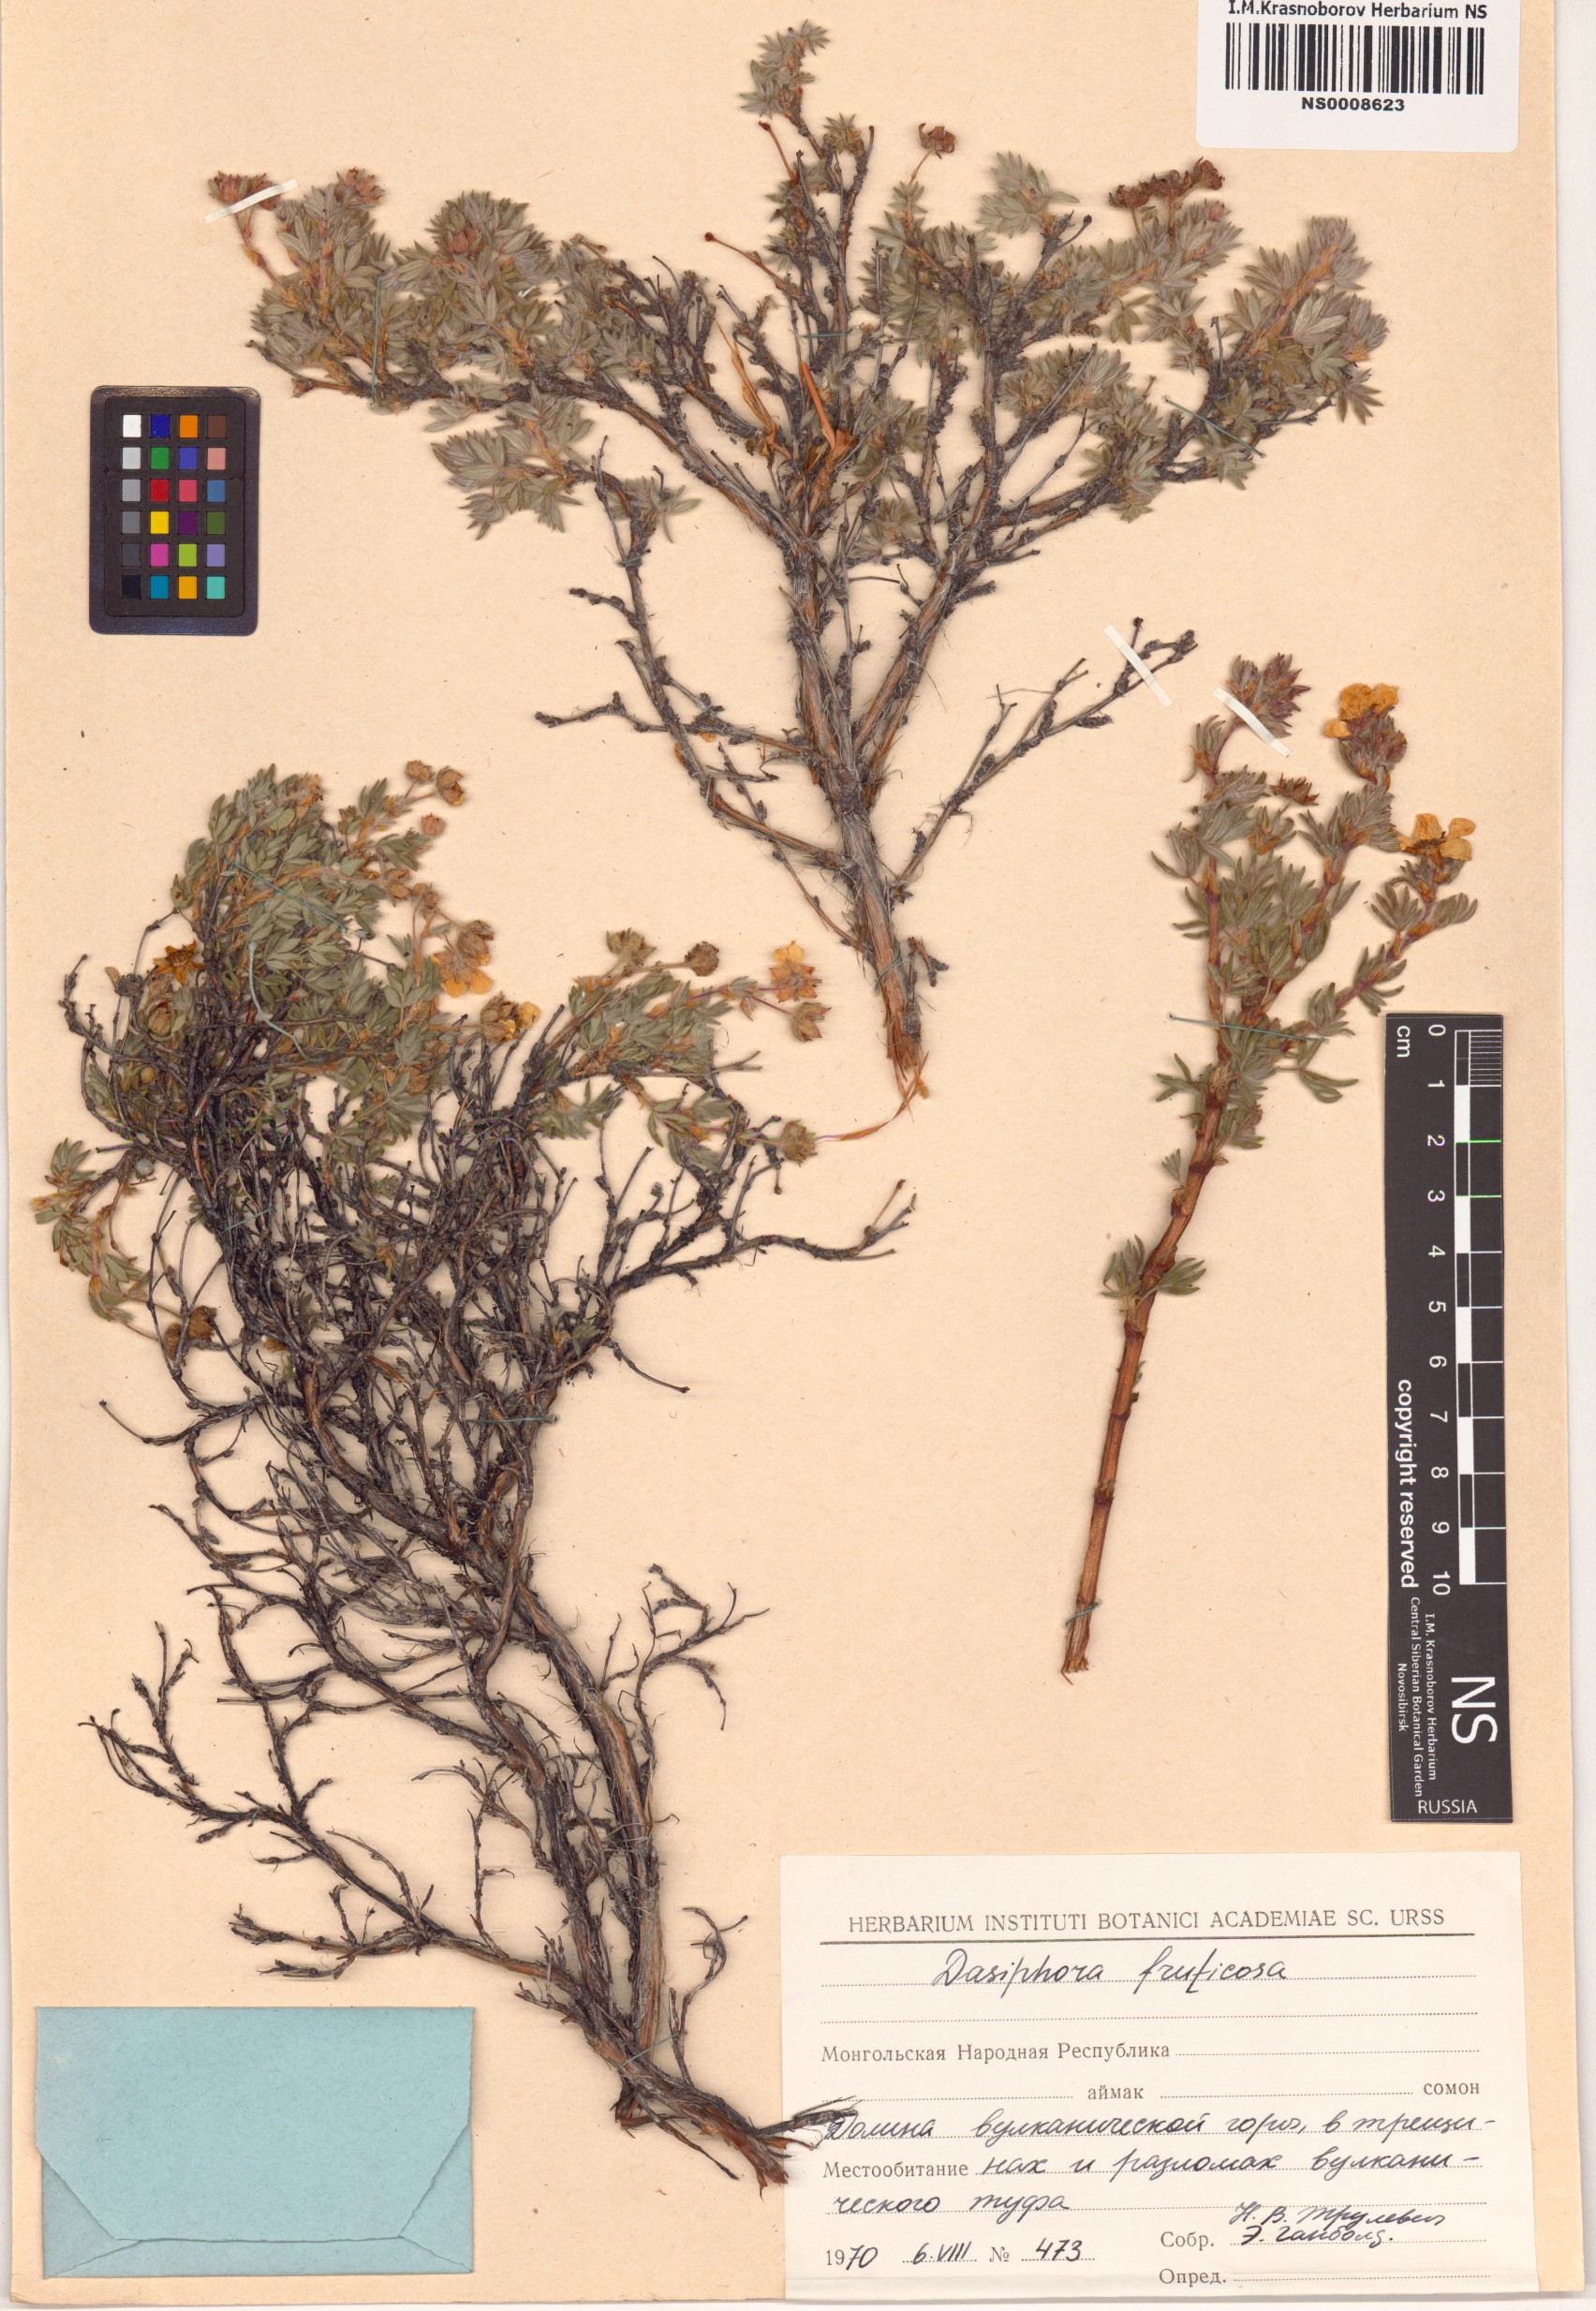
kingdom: Plantae
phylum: Tracheophyta
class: Magnoliopsida
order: Rosales
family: Rosaceae
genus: Dasiphora
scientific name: Dasiphora fruticosa
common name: Shrubby cinquefoil
